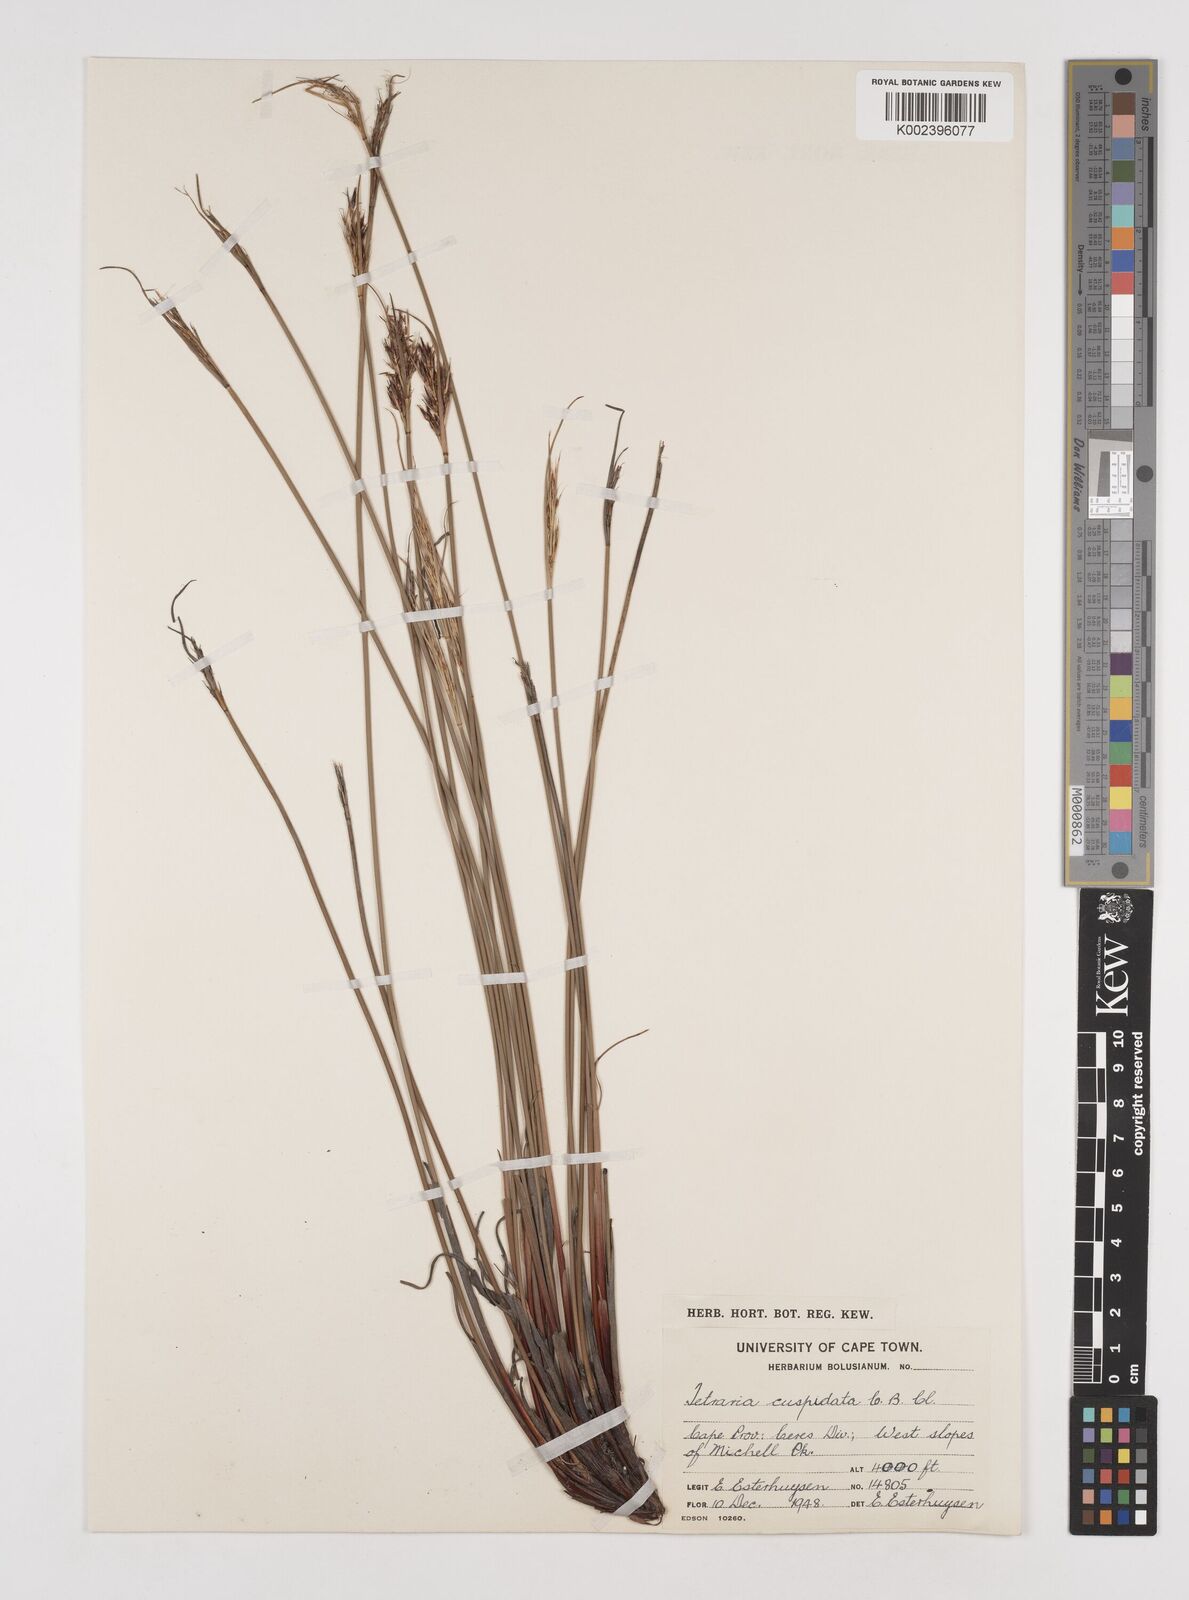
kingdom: Plantae
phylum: Tracheophyta
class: Liliopsida
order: Poales
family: Cyperaceae
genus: Schoenus
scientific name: Schoenus cuspidatus
